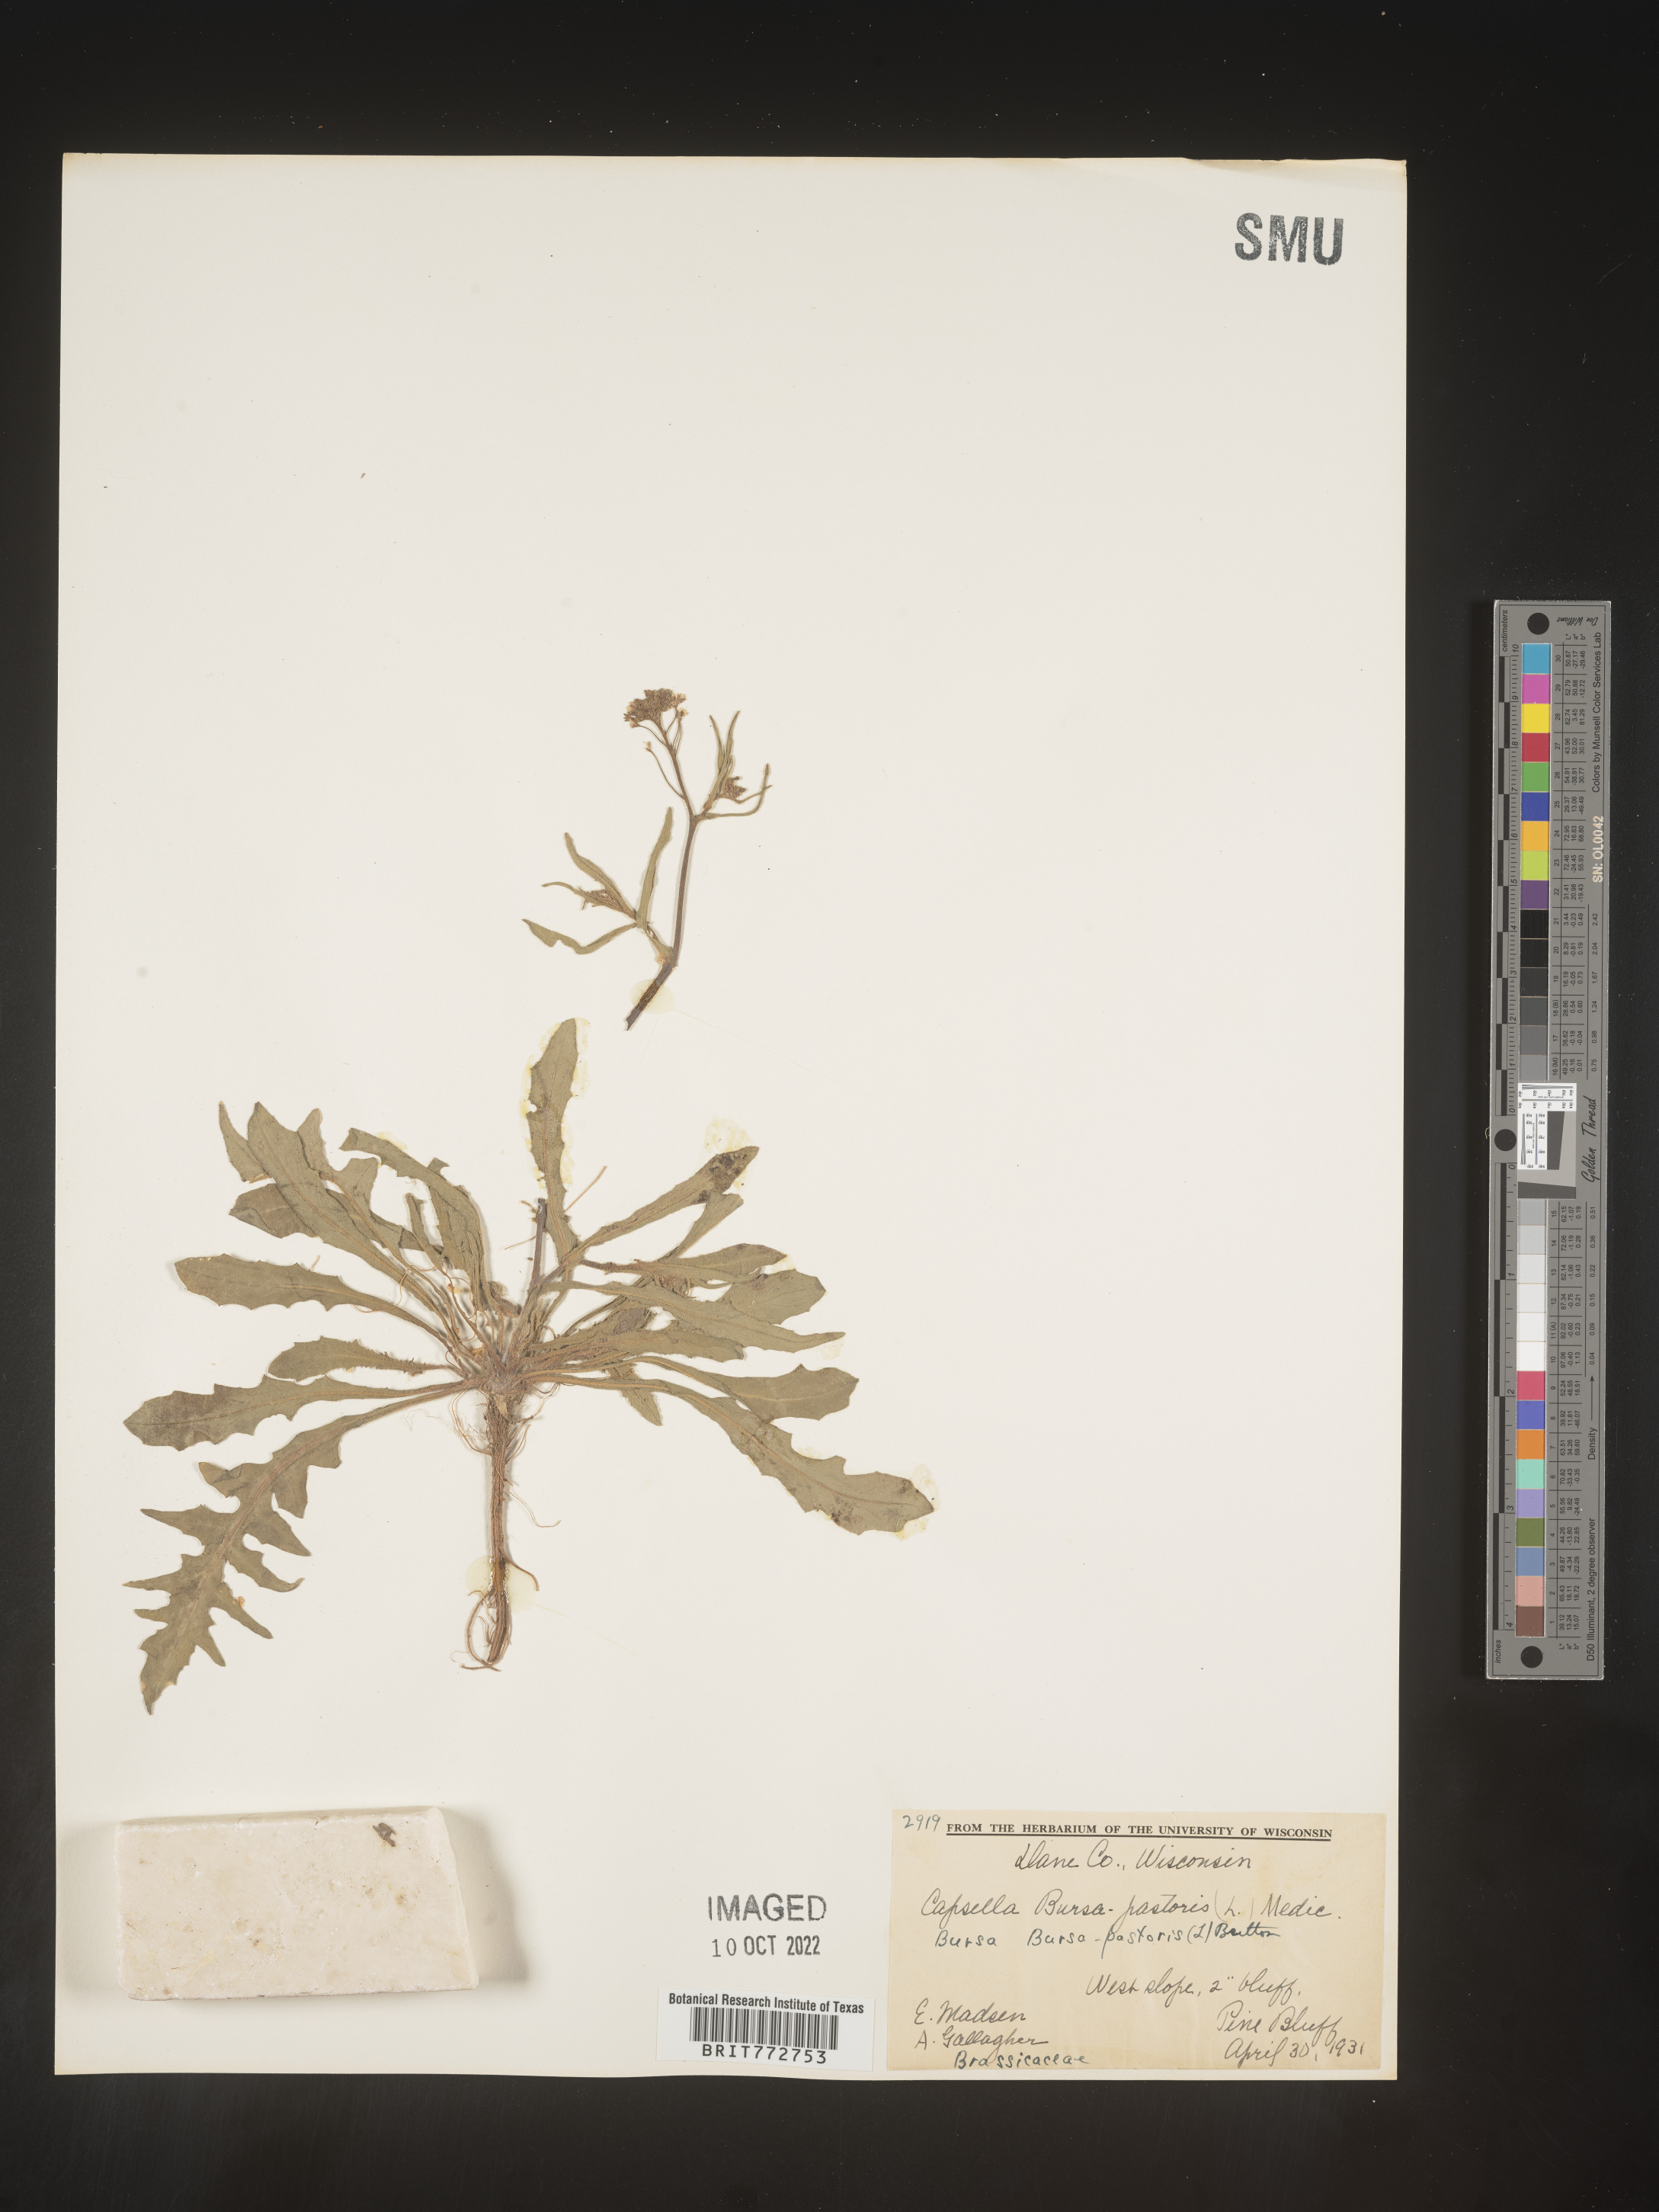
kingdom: Plantae
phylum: Tracheophyta
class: Magnoliopsida
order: Brassicales
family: Brassicaceae
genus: Capsella
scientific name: Capsella bursa-pastoris
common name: Shepherd's purse
